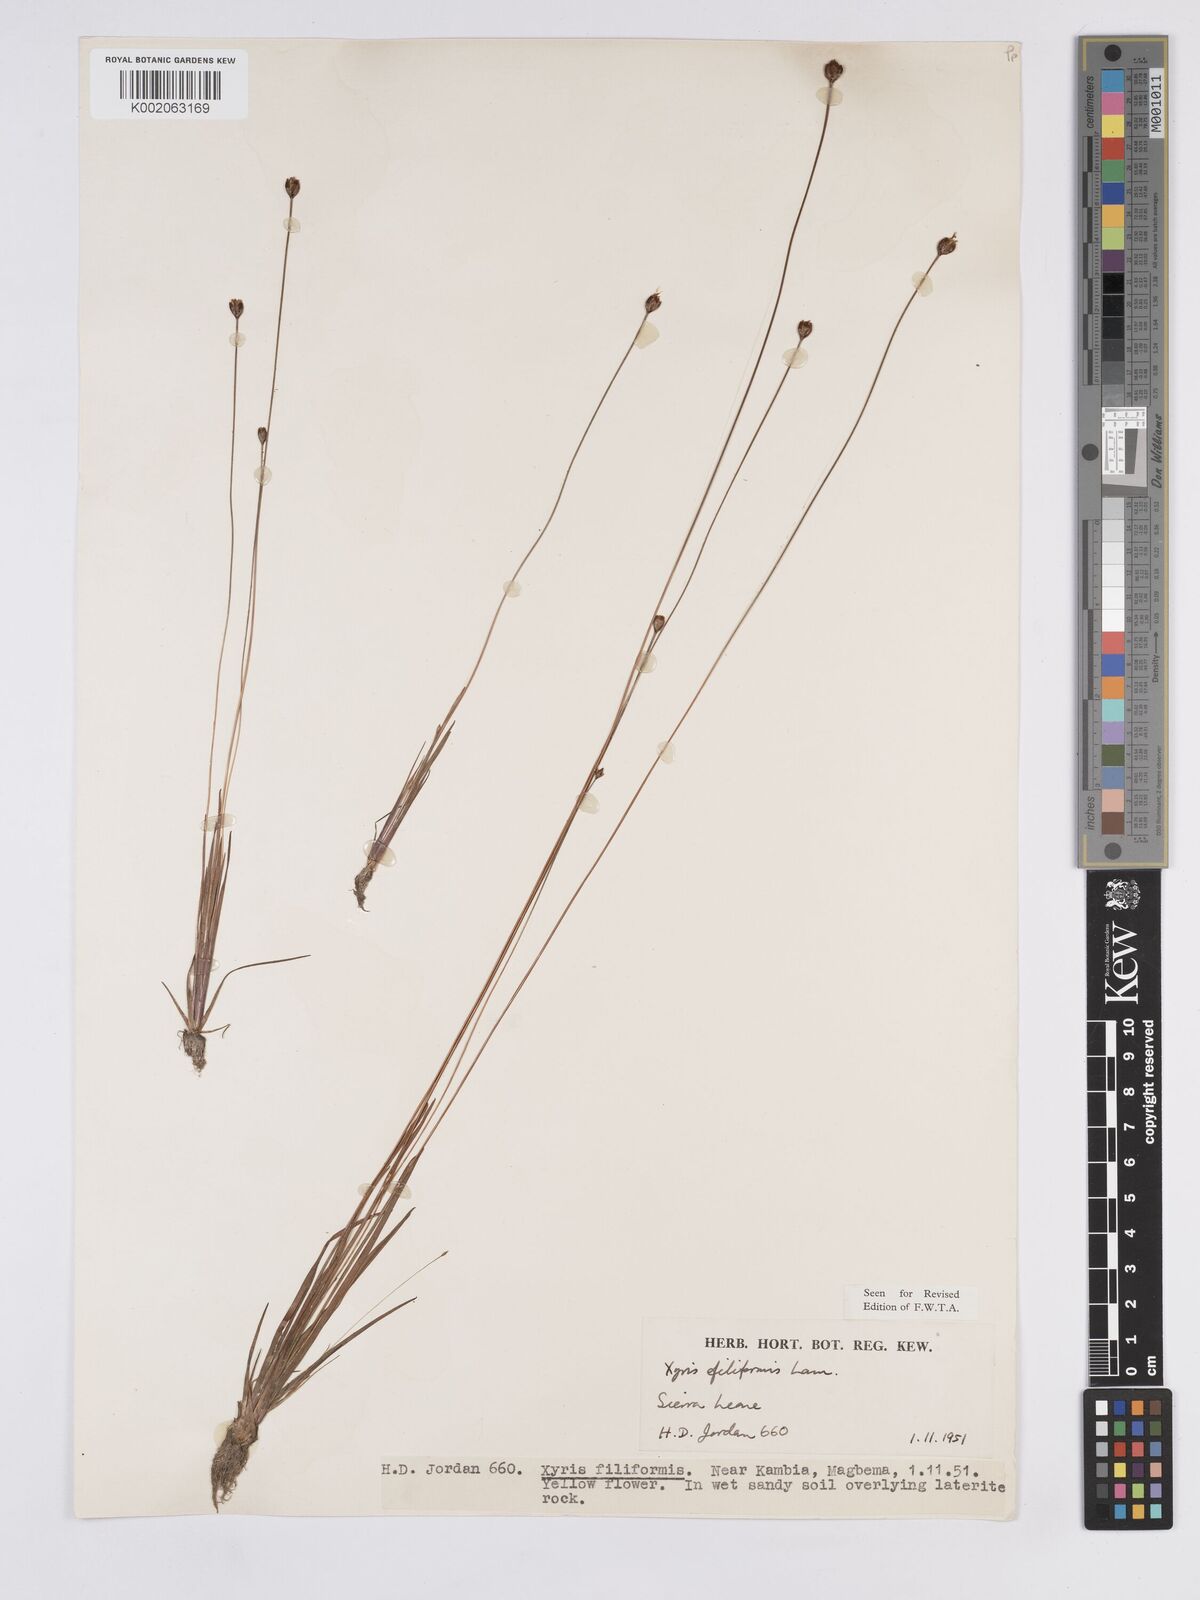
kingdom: Plantae
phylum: Tracheophyta
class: Liliopsida
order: Poales
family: Xyridaceae
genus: Xyris
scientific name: Xyris filiformis
